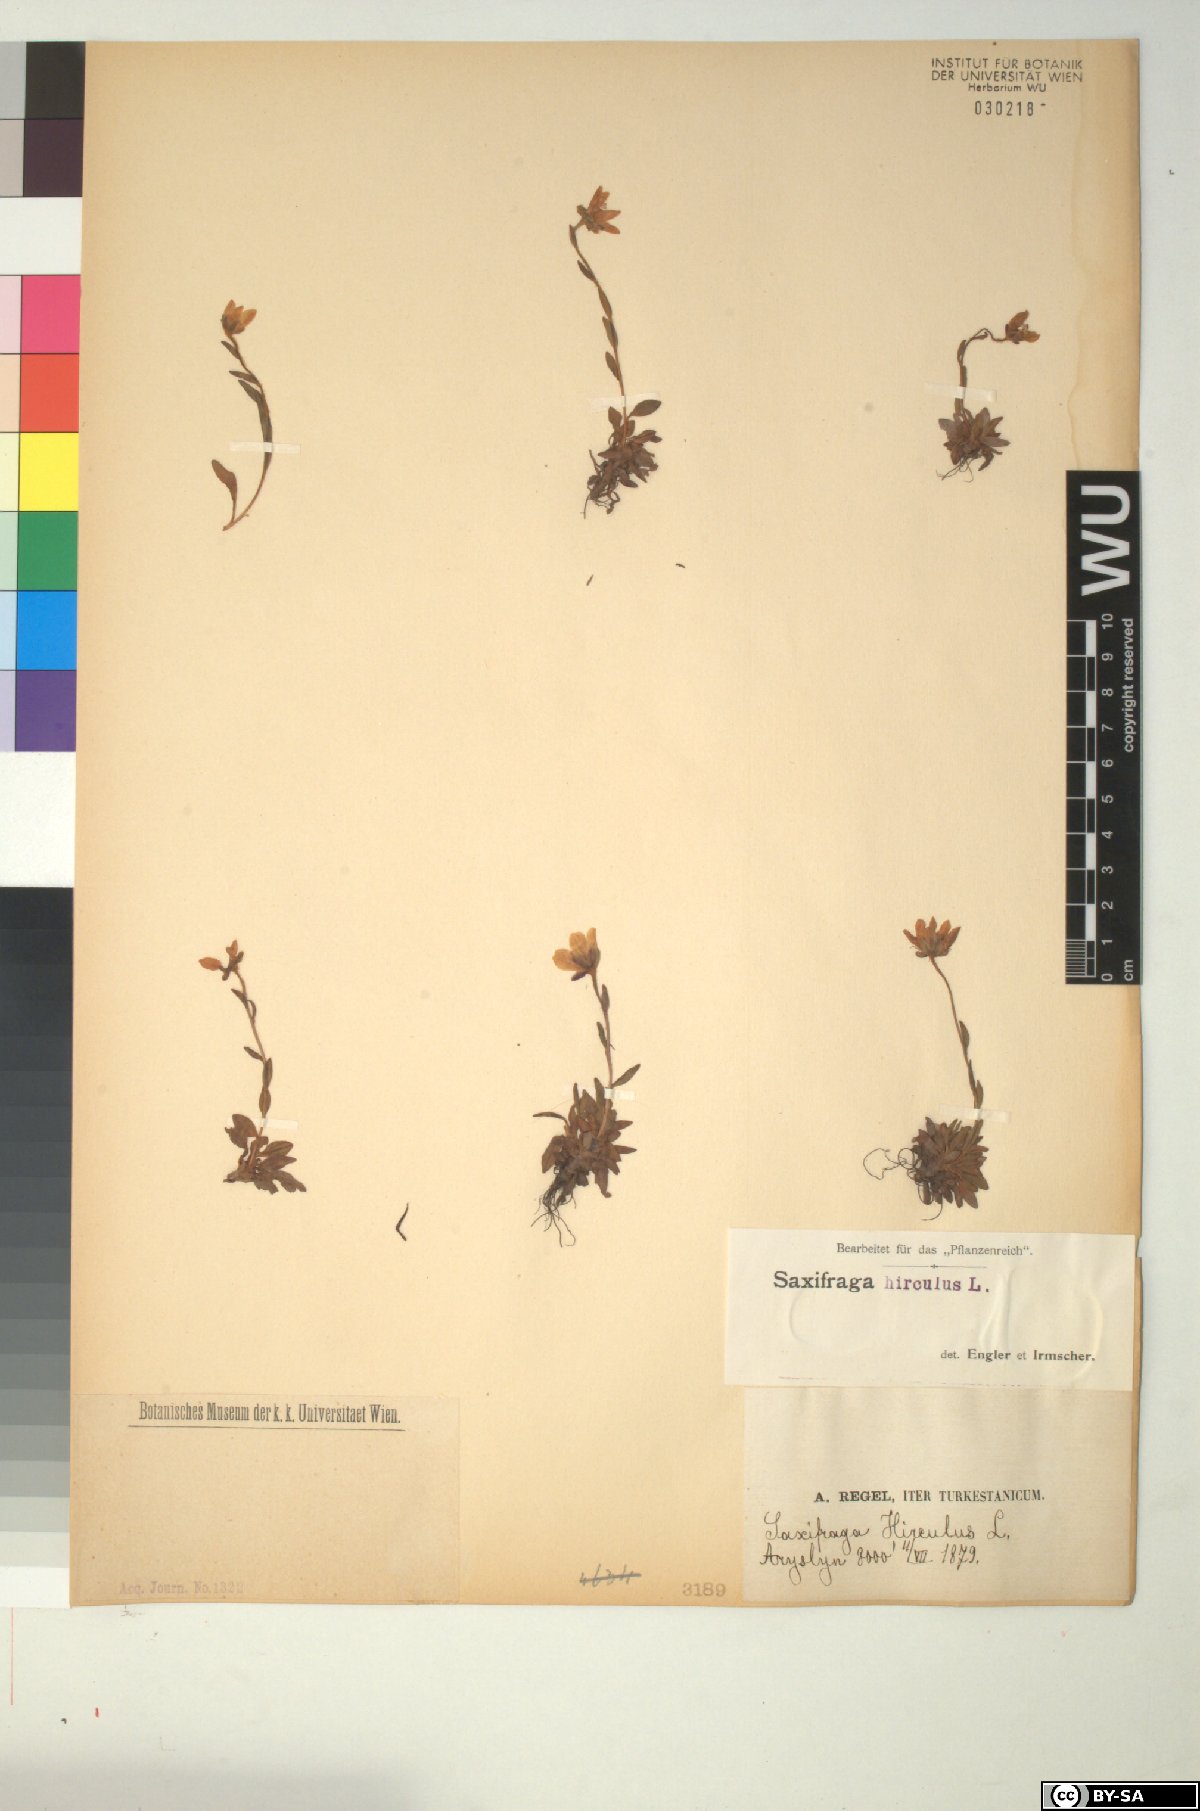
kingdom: Plantae
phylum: Tracheophyta
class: Magnoliopsida
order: Saxifragales
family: Saxifragaceae
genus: Saxifraga
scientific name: Saxifraga hirculus
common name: Yellow marsh saxifrage
